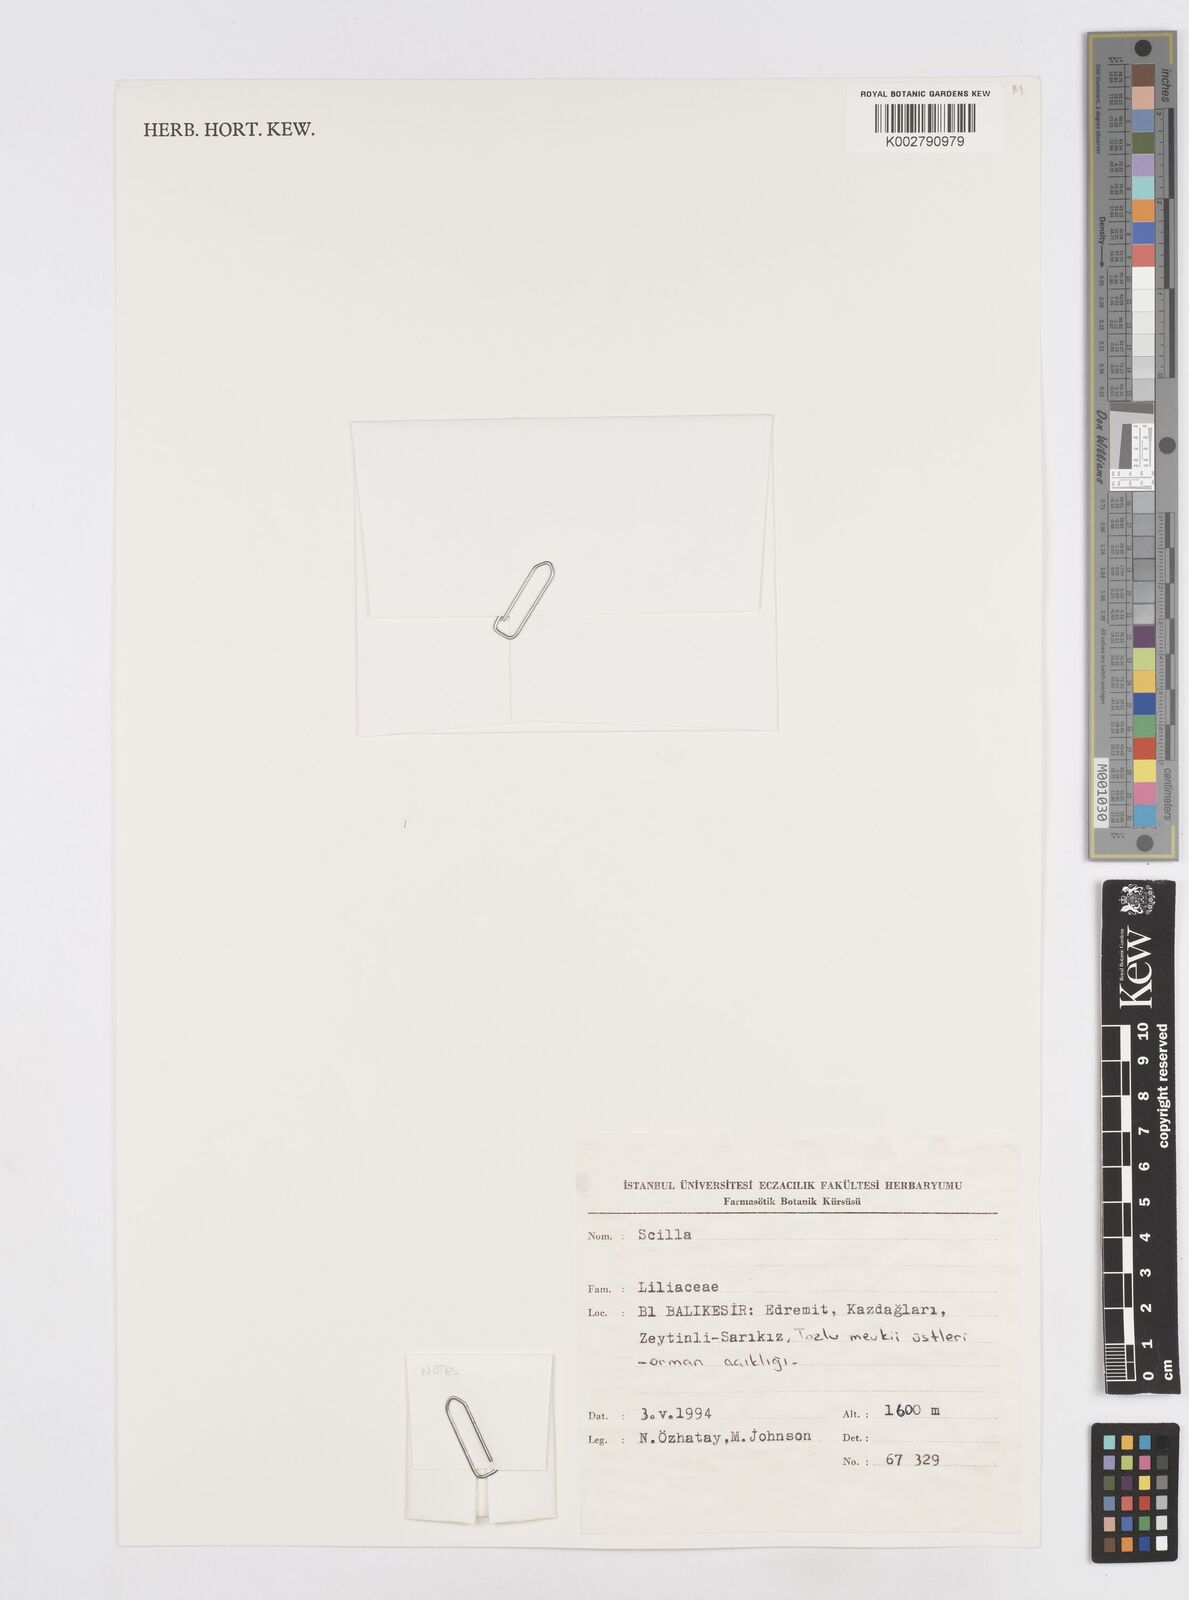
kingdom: Plantae
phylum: Tracheophyta
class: Liliopsida
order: Asparagales
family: Asparagaceae
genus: Scilla
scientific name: Scilla
